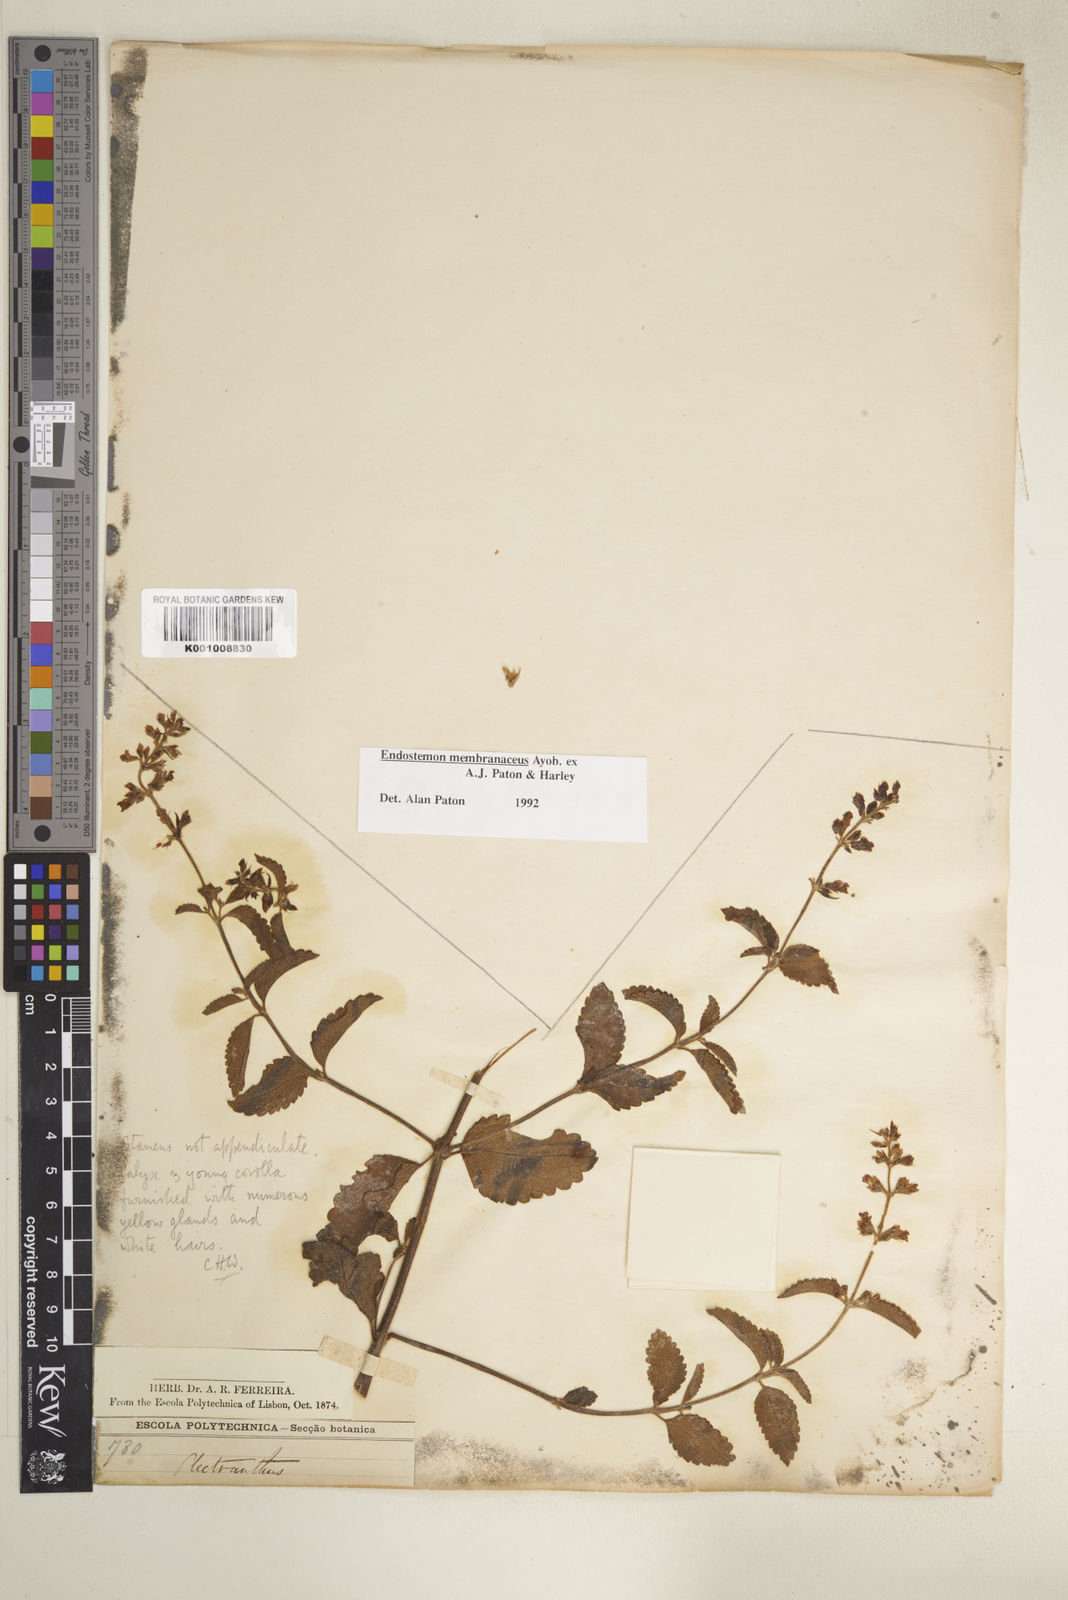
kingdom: Plantae
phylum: Tracheophyta
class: Magnoliopsida
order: Lamiales
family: Lamiaceae
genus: Endostemon
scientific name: Endostemon membranaceus
